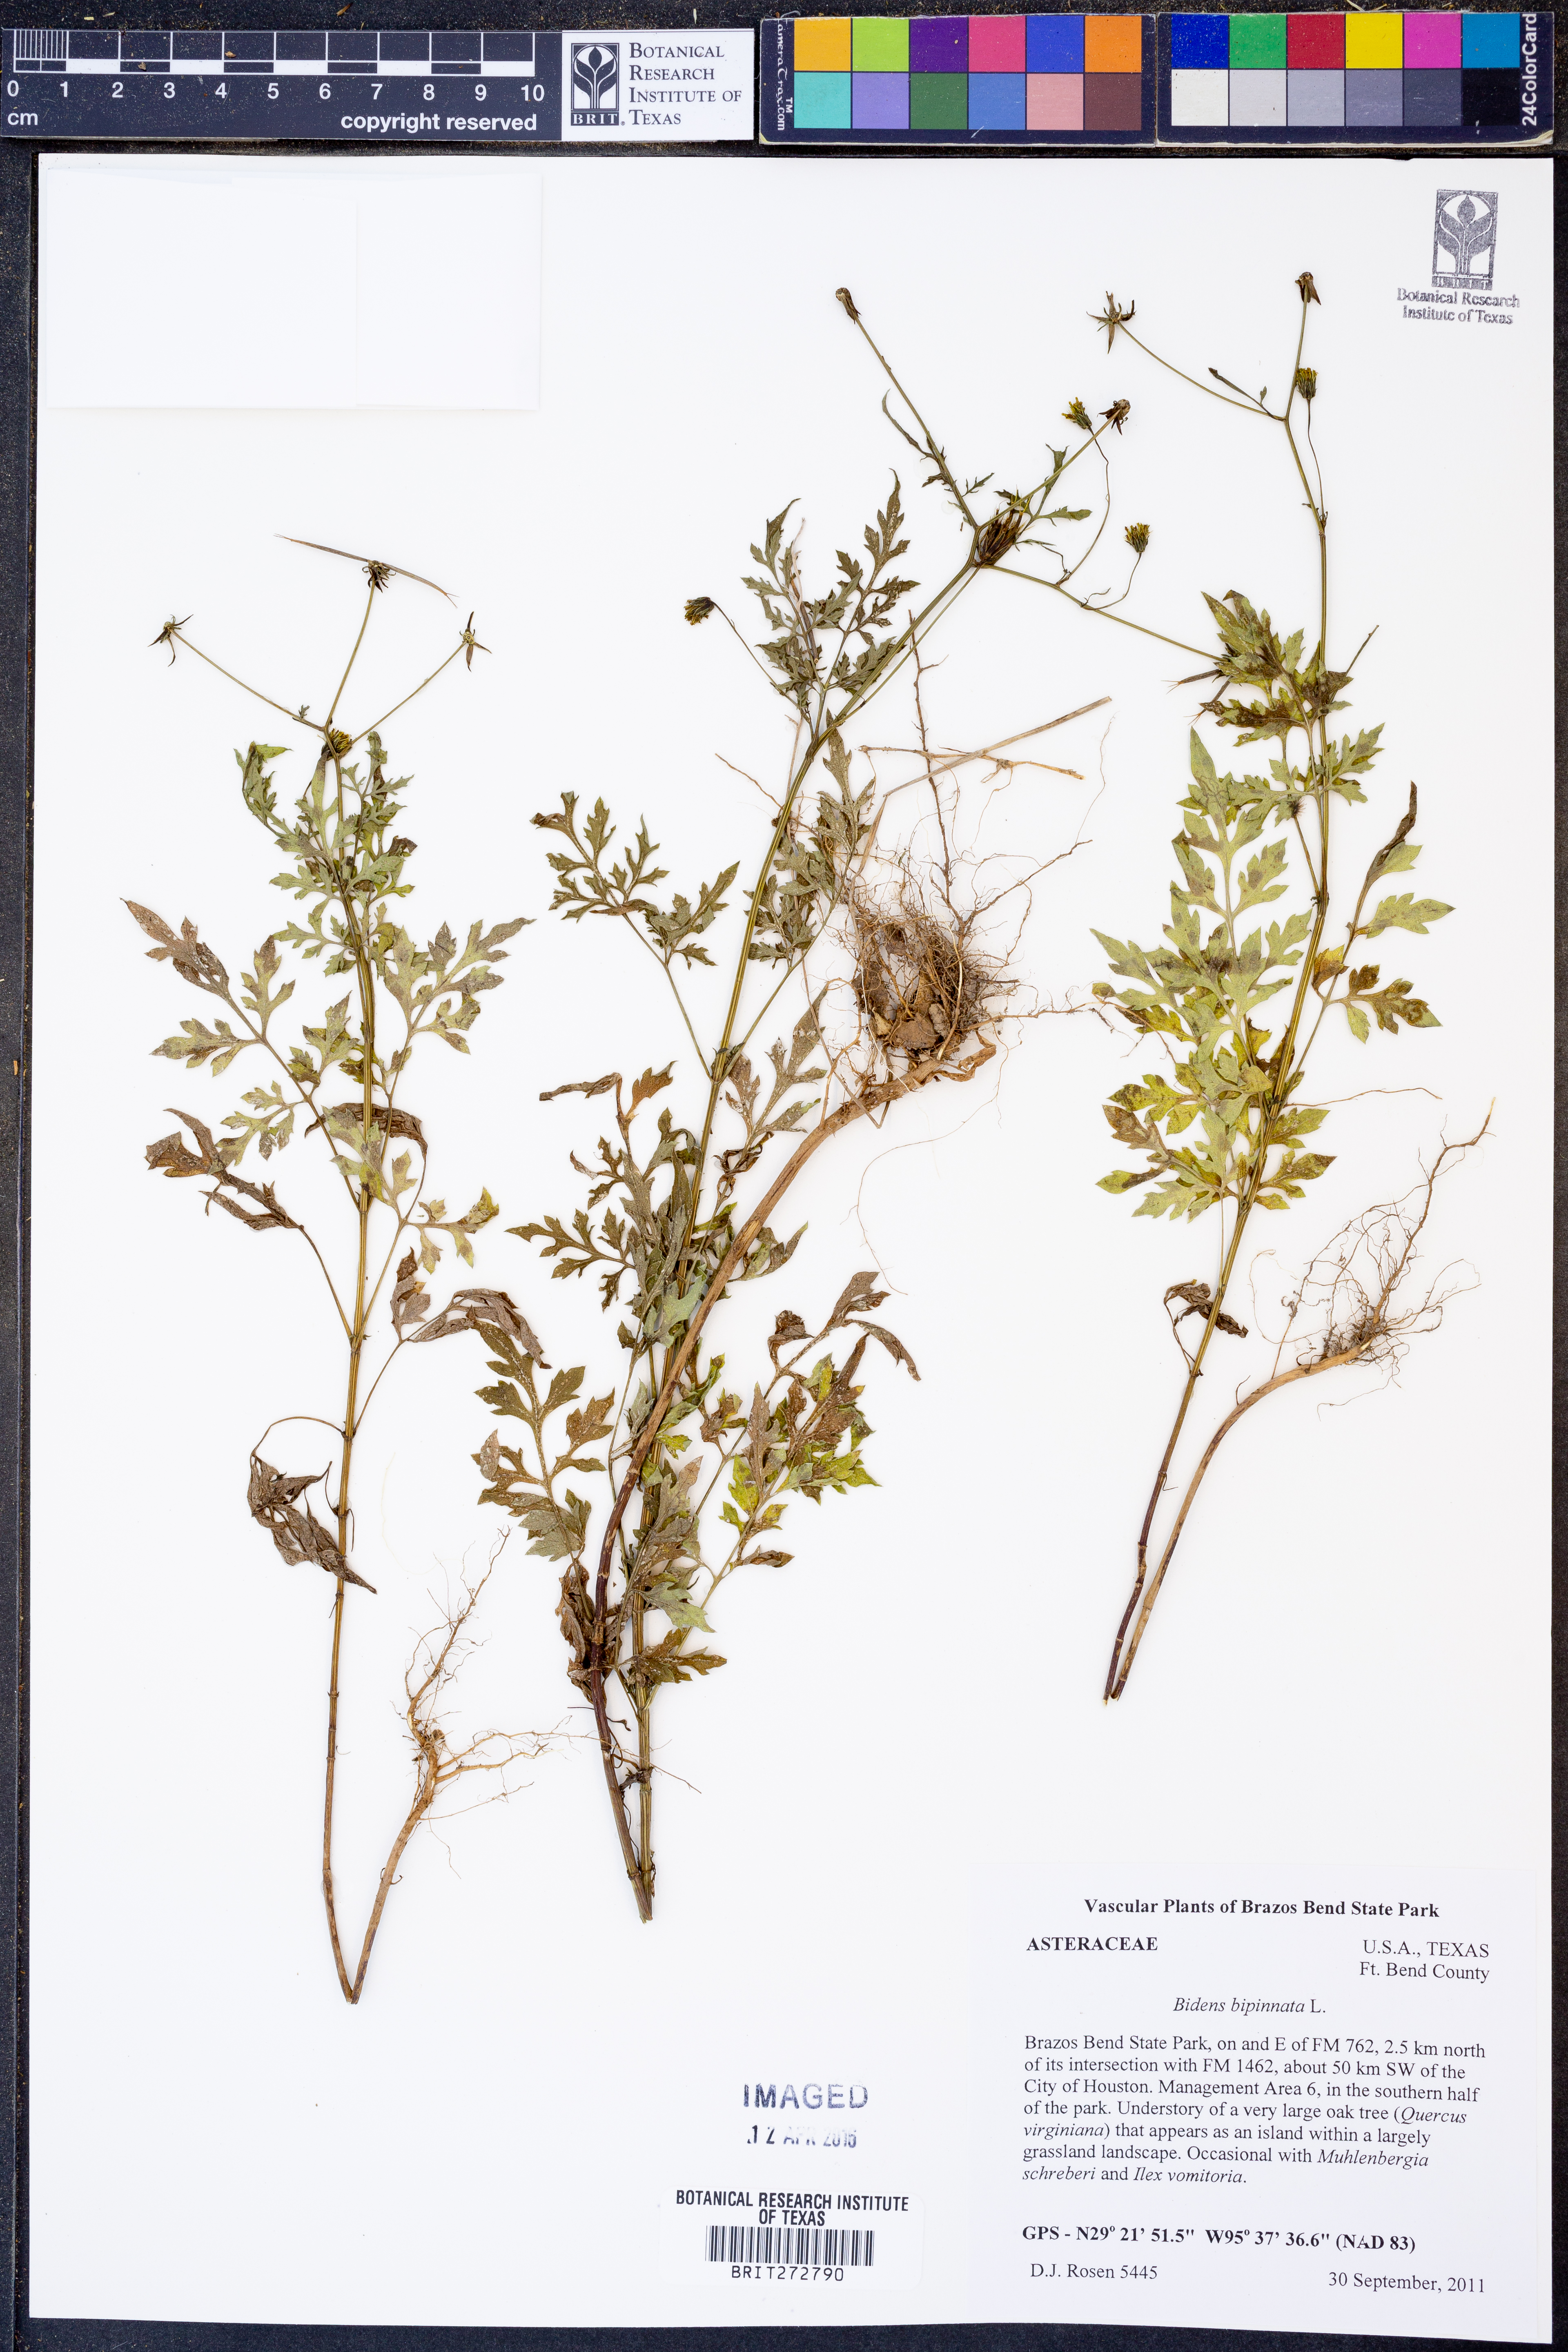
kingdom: Plantae
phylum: Tracheophyta
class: Magnoliopsida
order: Asterales
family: Asteraceae
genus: Bidens
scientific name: Bidens bipinnata
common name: Spanish-needles
